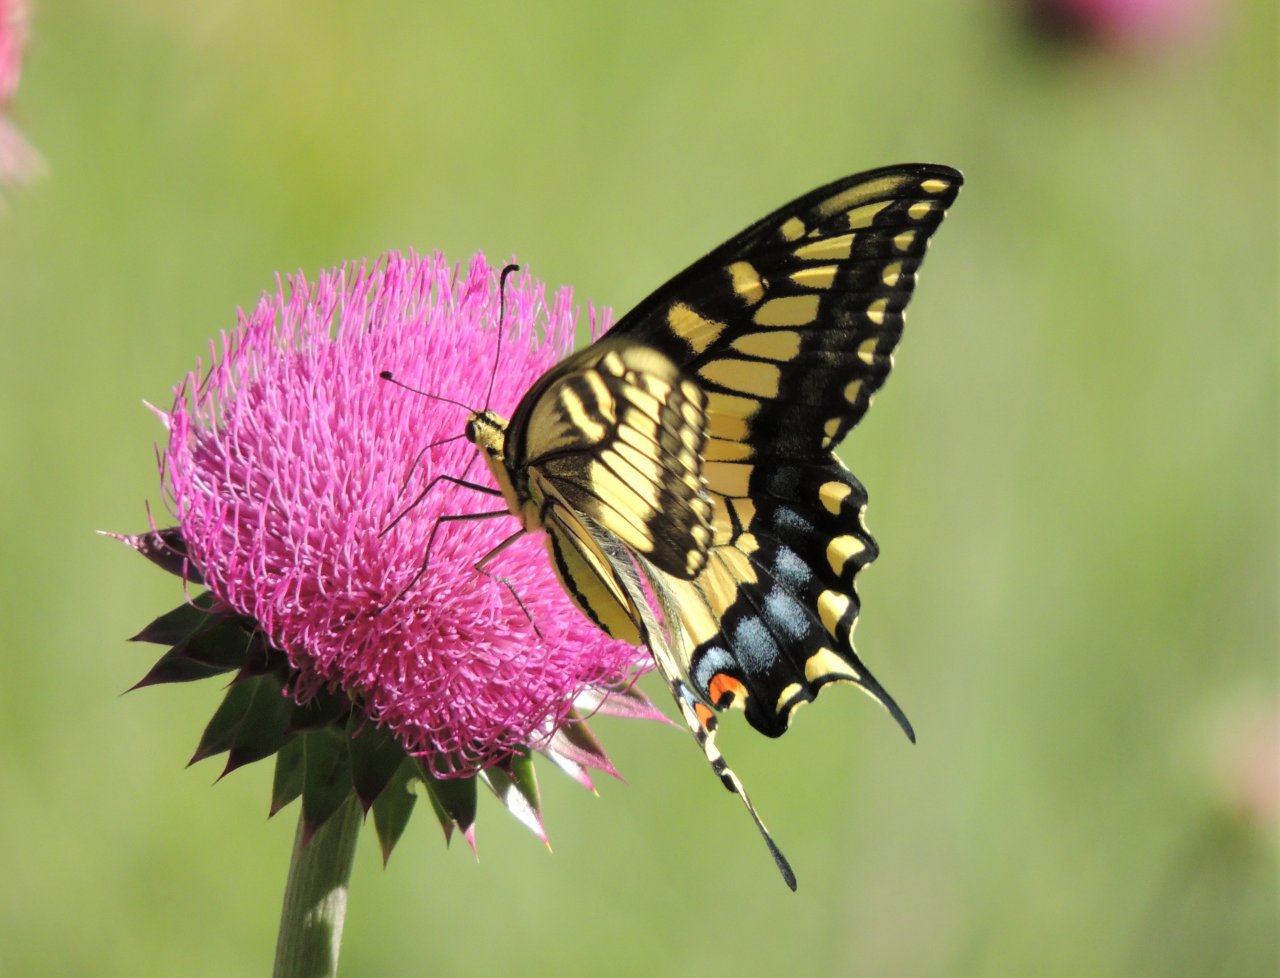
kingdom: Animalia
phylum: Arthropoda
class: Insecta
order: Lepidoptera
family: Papilionidae
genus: Papilio
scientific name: Papilio machaon
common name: Old World Swallowtail
